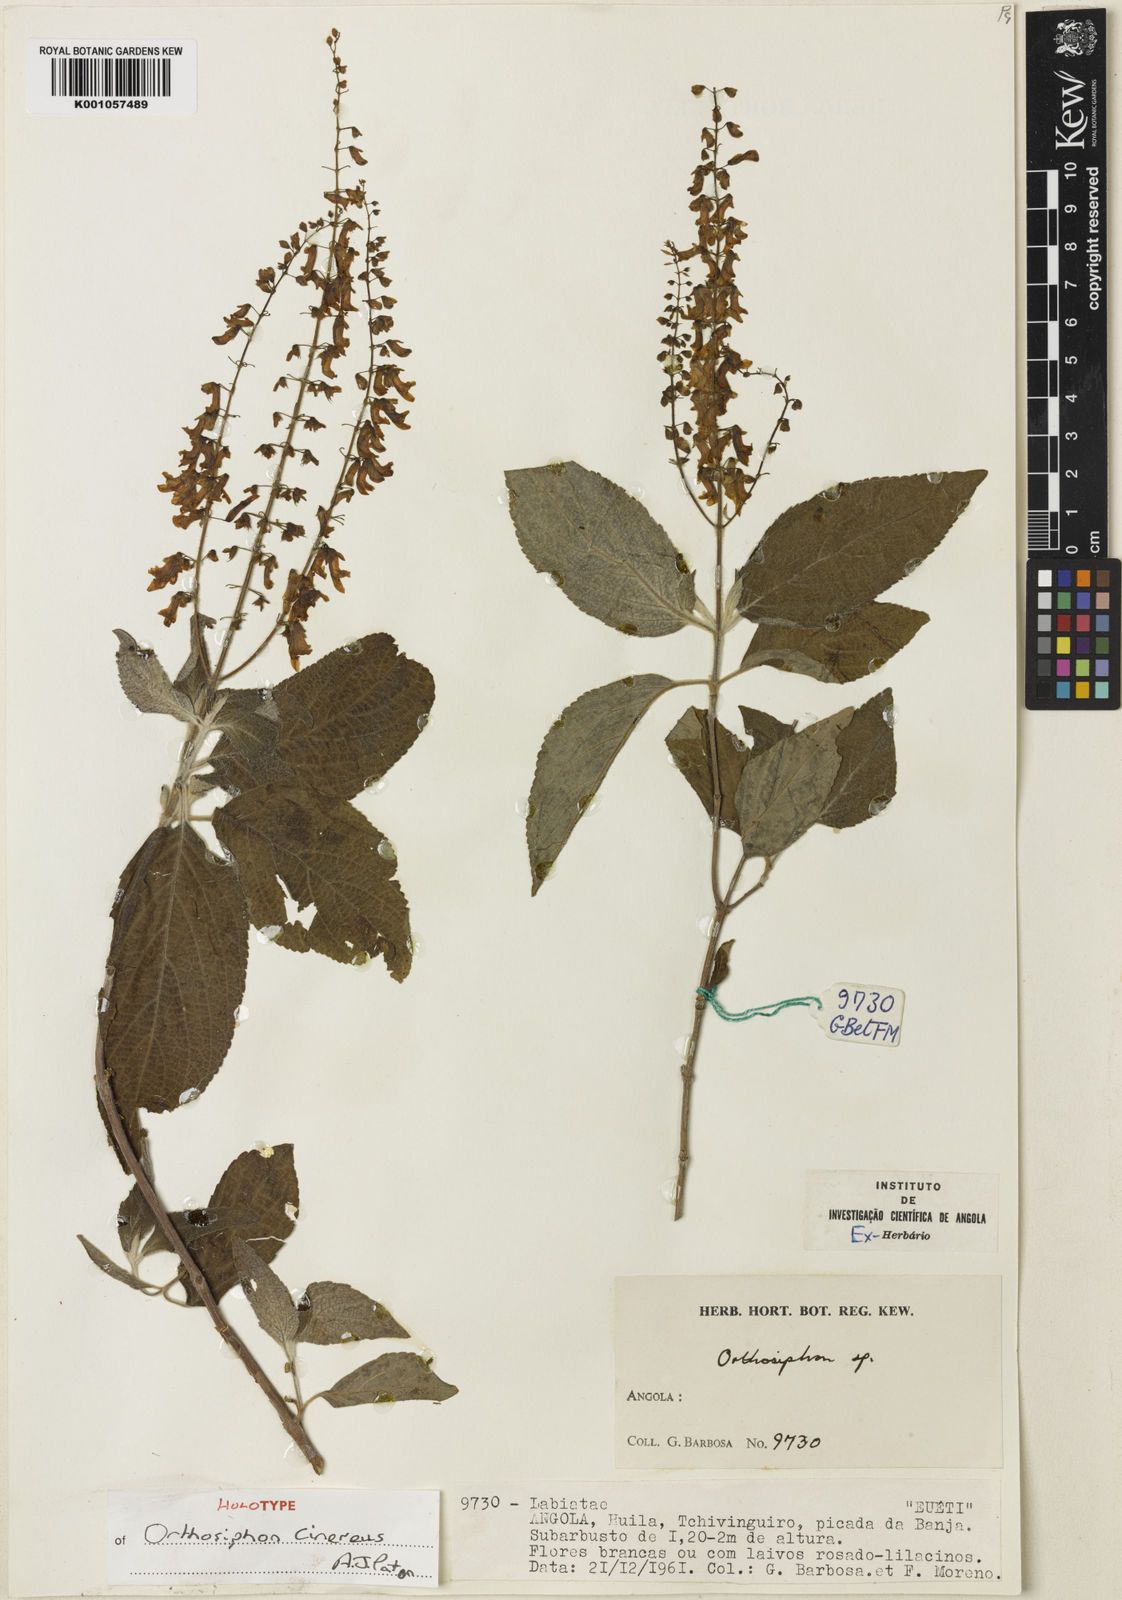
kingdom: Plantae
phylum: Tracheophyta
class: Magnoliopsida
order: Lamiales
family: Lamiaceae
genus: Orthosiphon
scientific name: Orthosiphon cinereus
